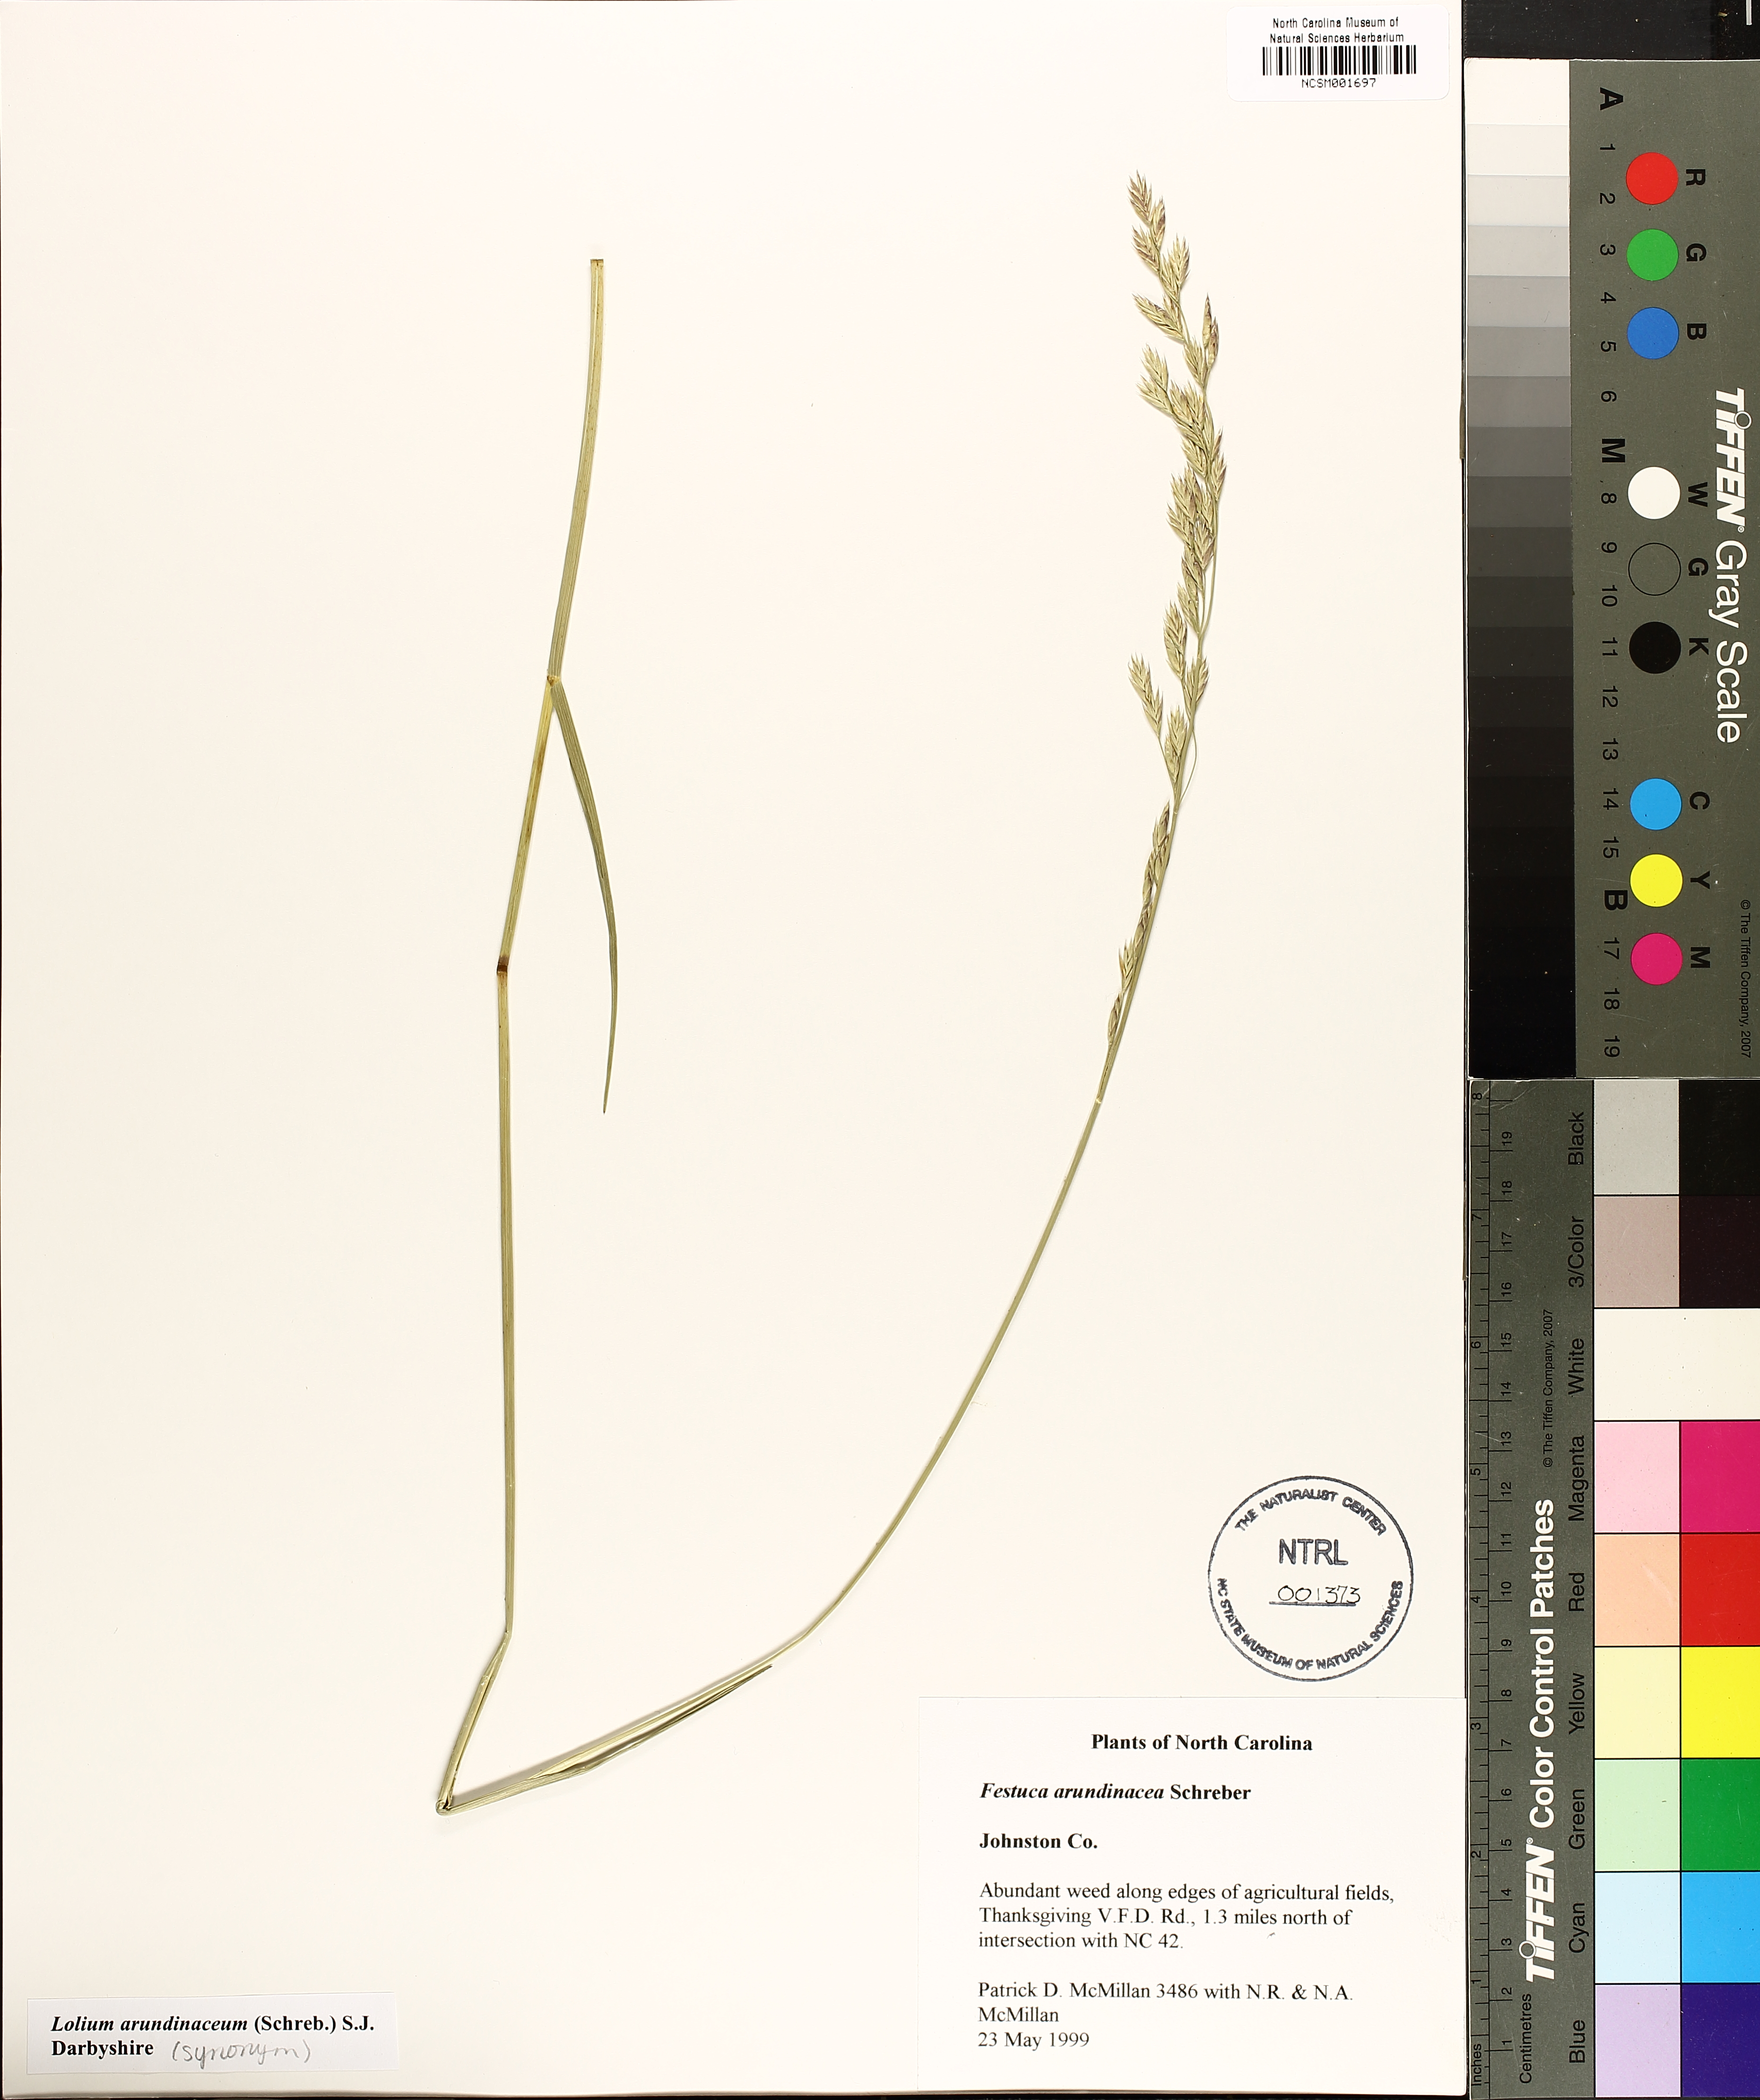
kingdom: Plantae
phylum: Tracheophyta
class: Liliopsida
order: Poales
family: Poaceae
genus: Lolium
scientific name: Lolium arundinaceum
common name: Reed fescue
